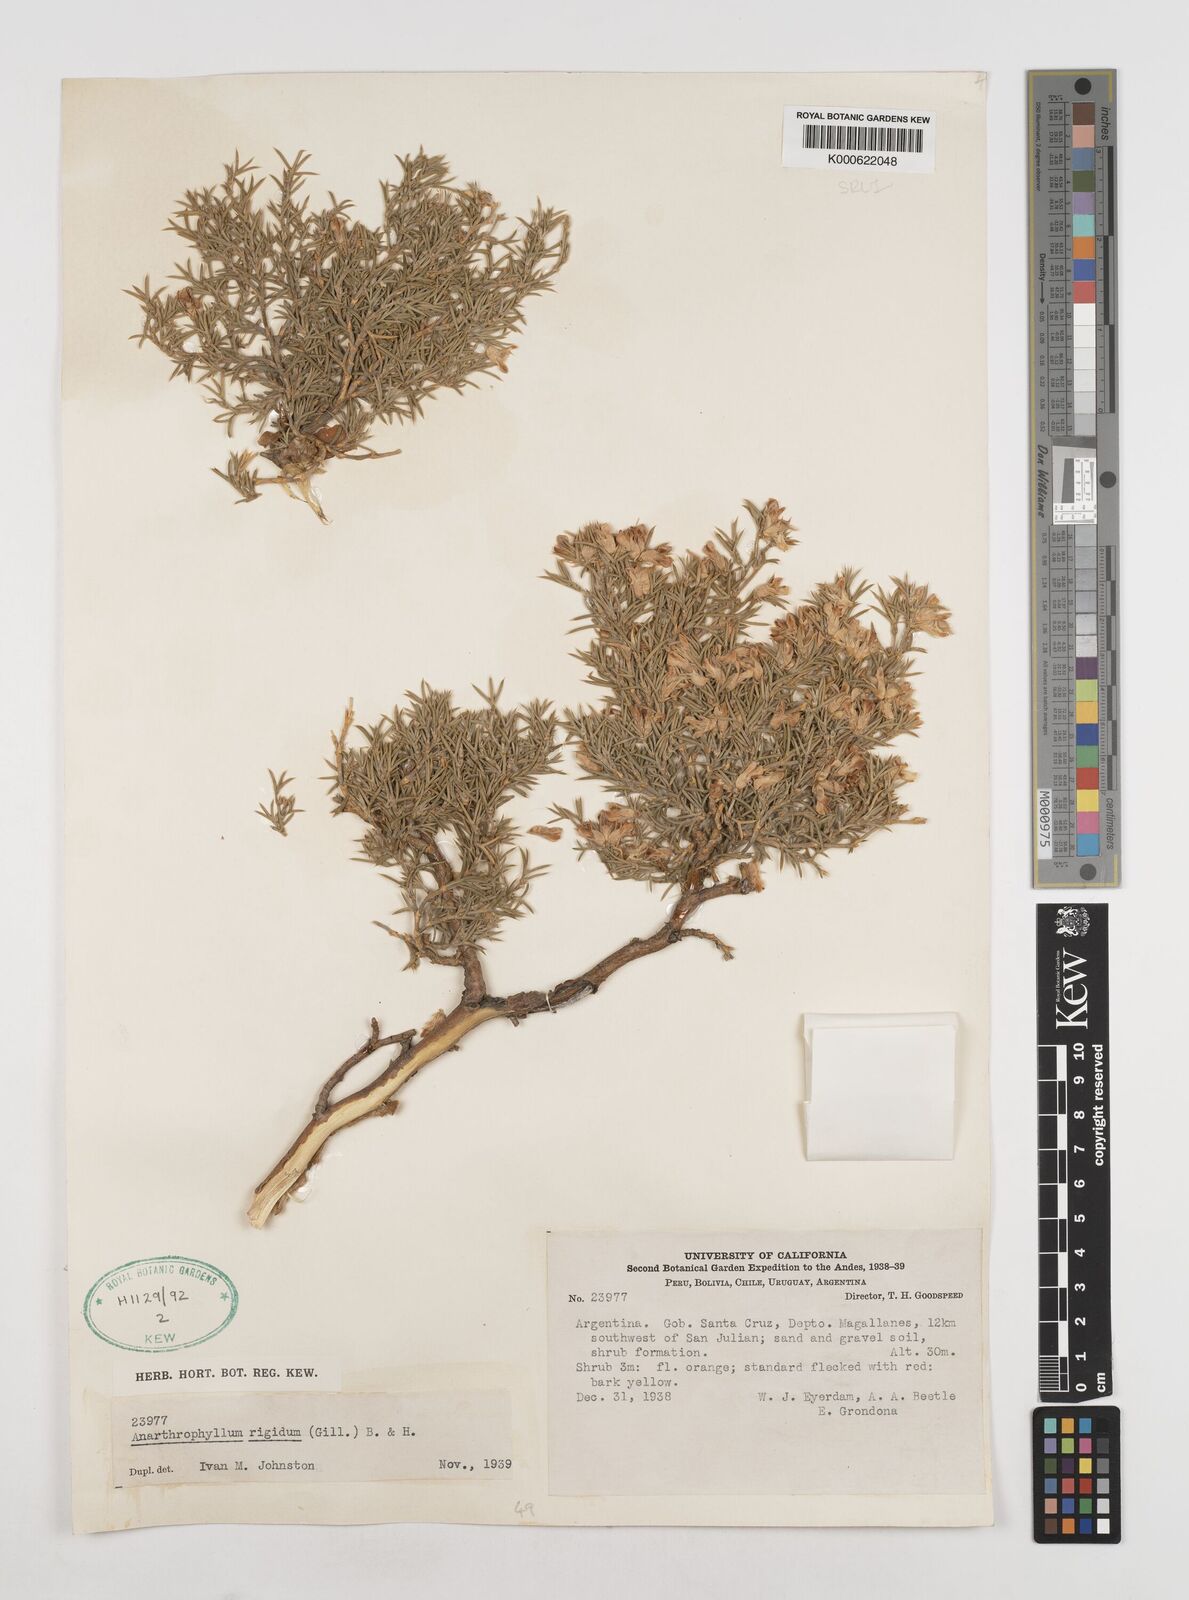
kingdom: Plantae
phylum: Tracheophyta
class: Magnoliopsida
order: Fabales
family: Fabaceae
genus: Anarthrophyllum
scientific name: Anarthrophyllum rigidum
